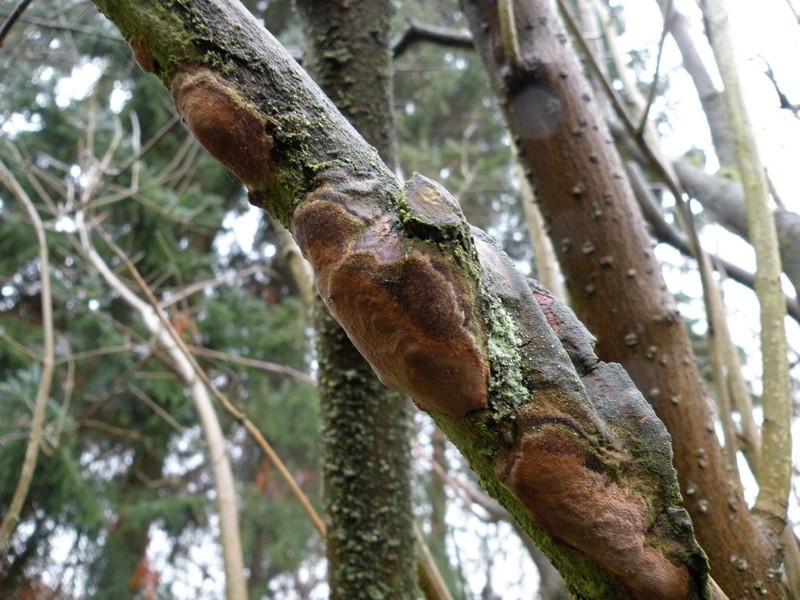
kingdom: Fungi
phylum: Basidiomycota
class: Agaricomycetes
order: Hymenochaetales
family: Hymenochaetaceae
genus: Fuscoporia
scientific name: Fuscoporia ferrea
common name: skorpe-ildporesvamp
